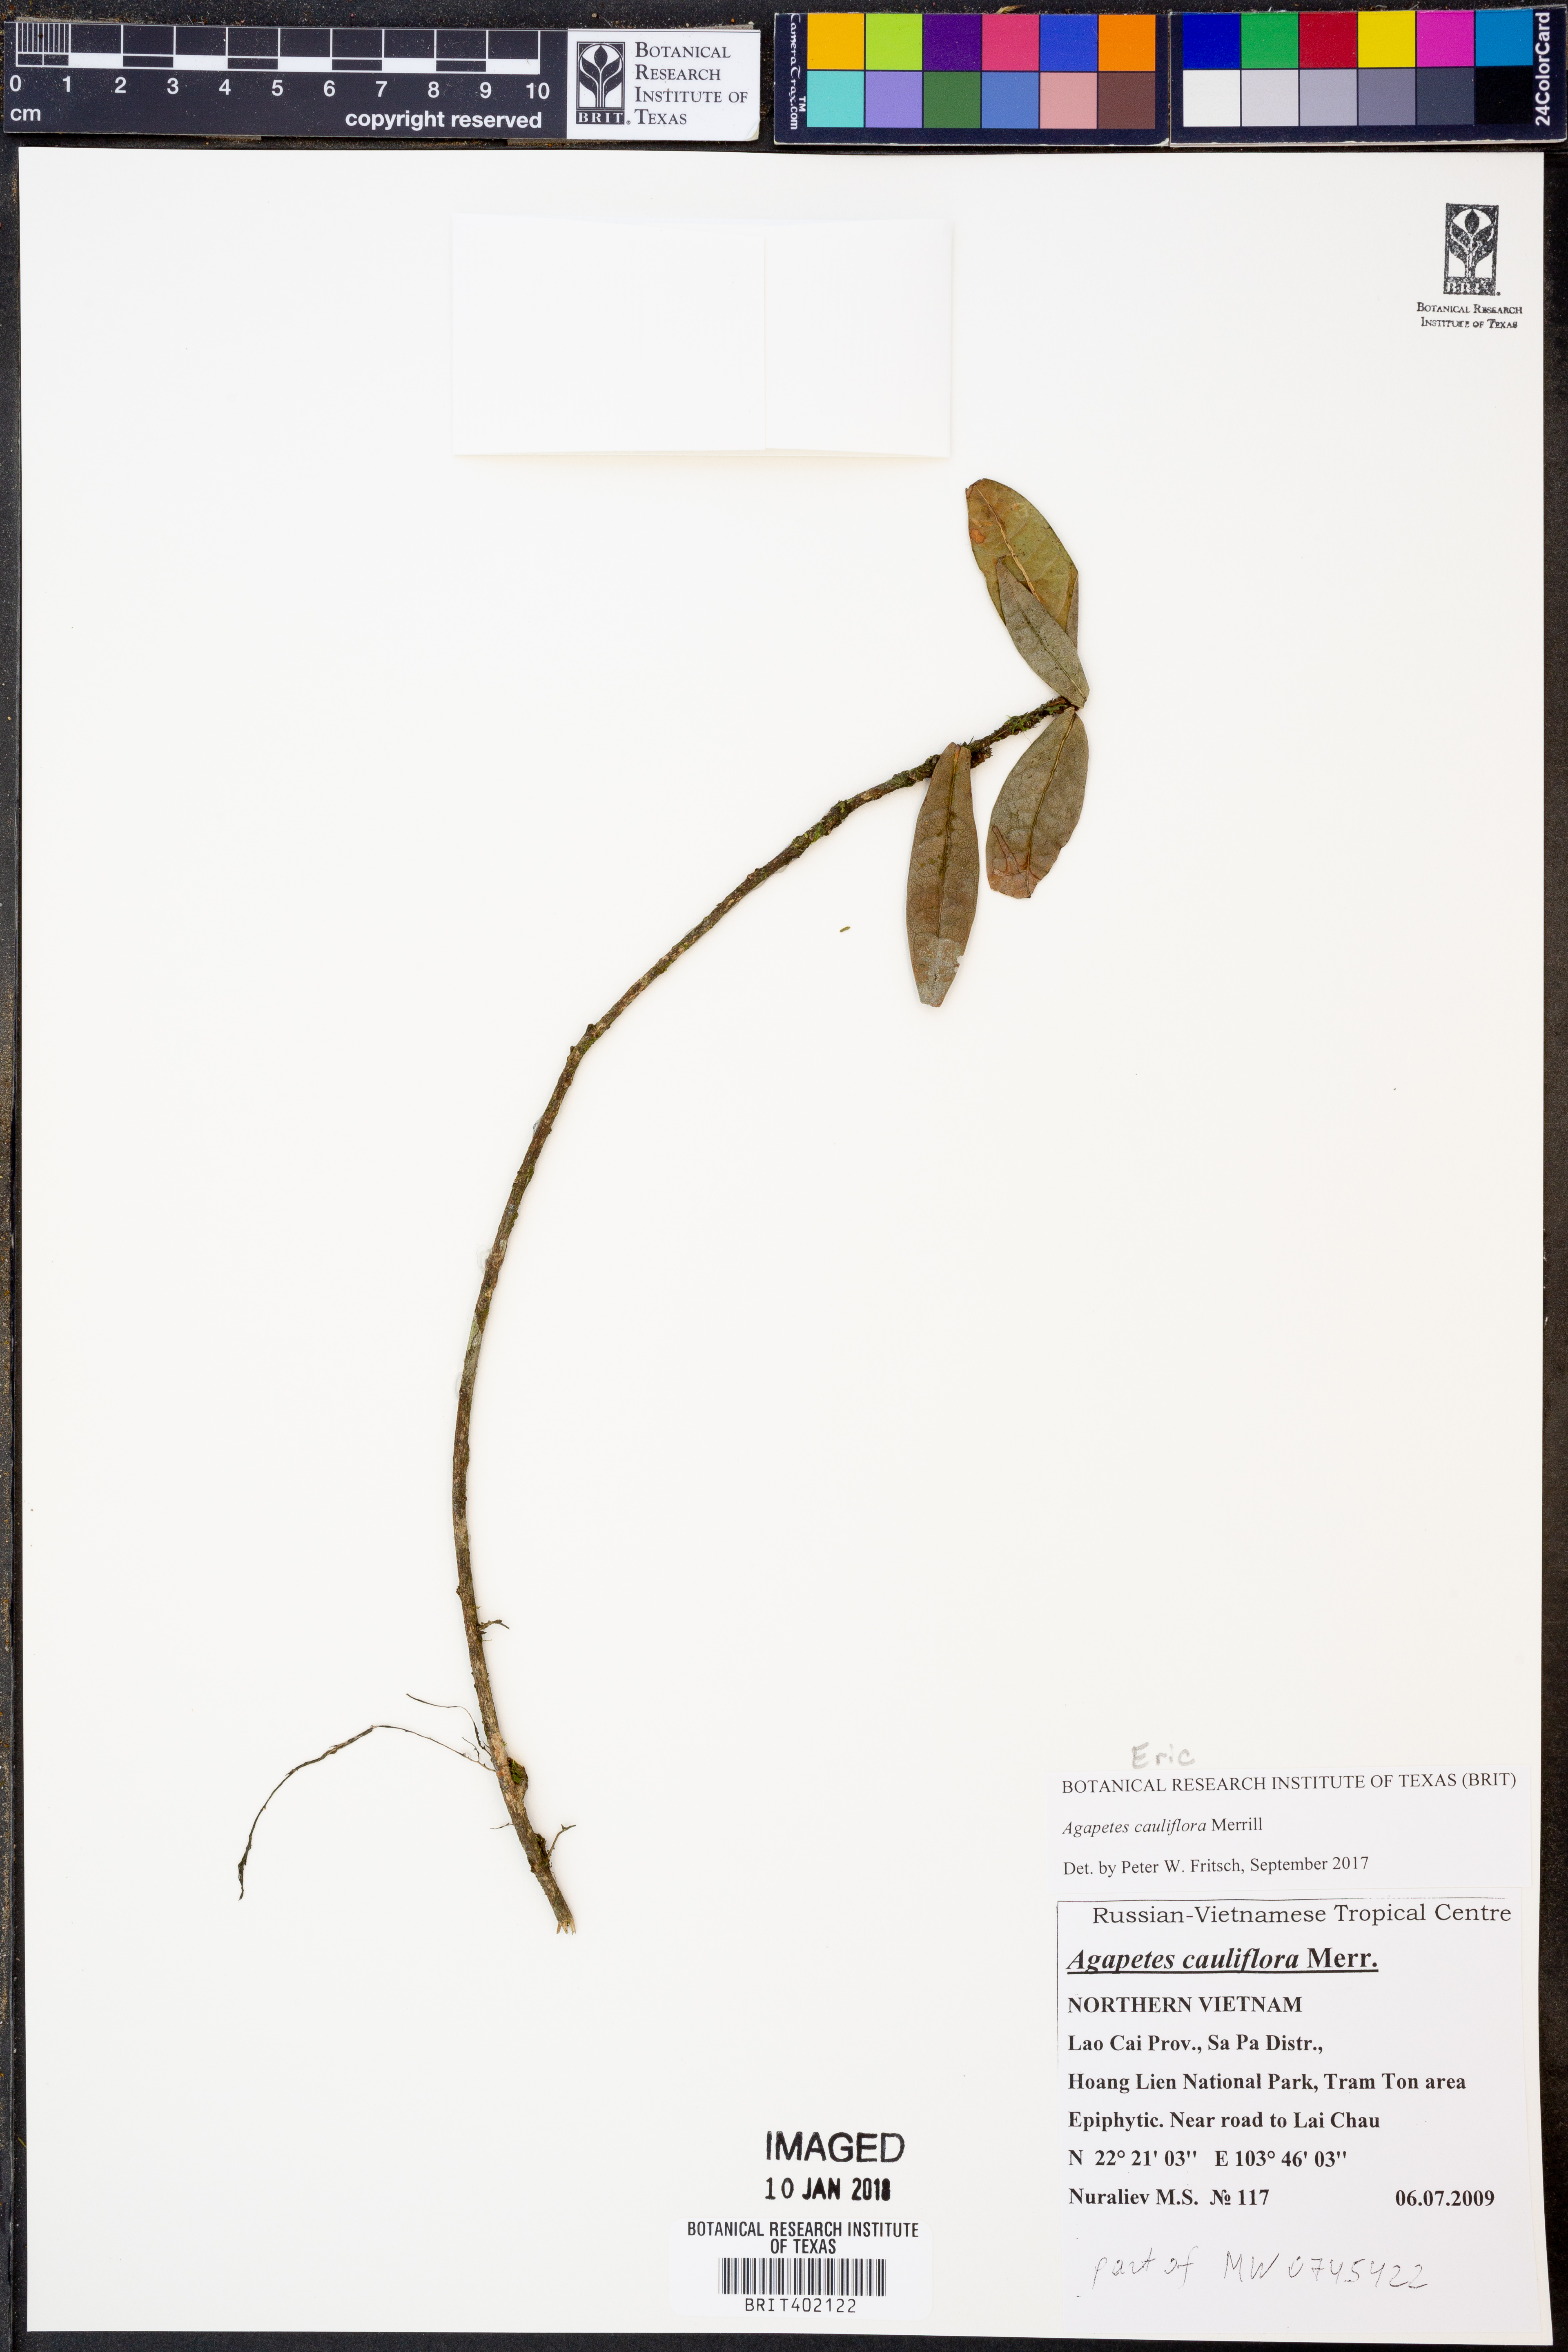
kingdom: Plantae
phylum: Tracheophyta
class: Magnoliopsida
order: Ericales
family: Ericaceae
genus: Agapetes
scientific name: Agapetes cauliflora
